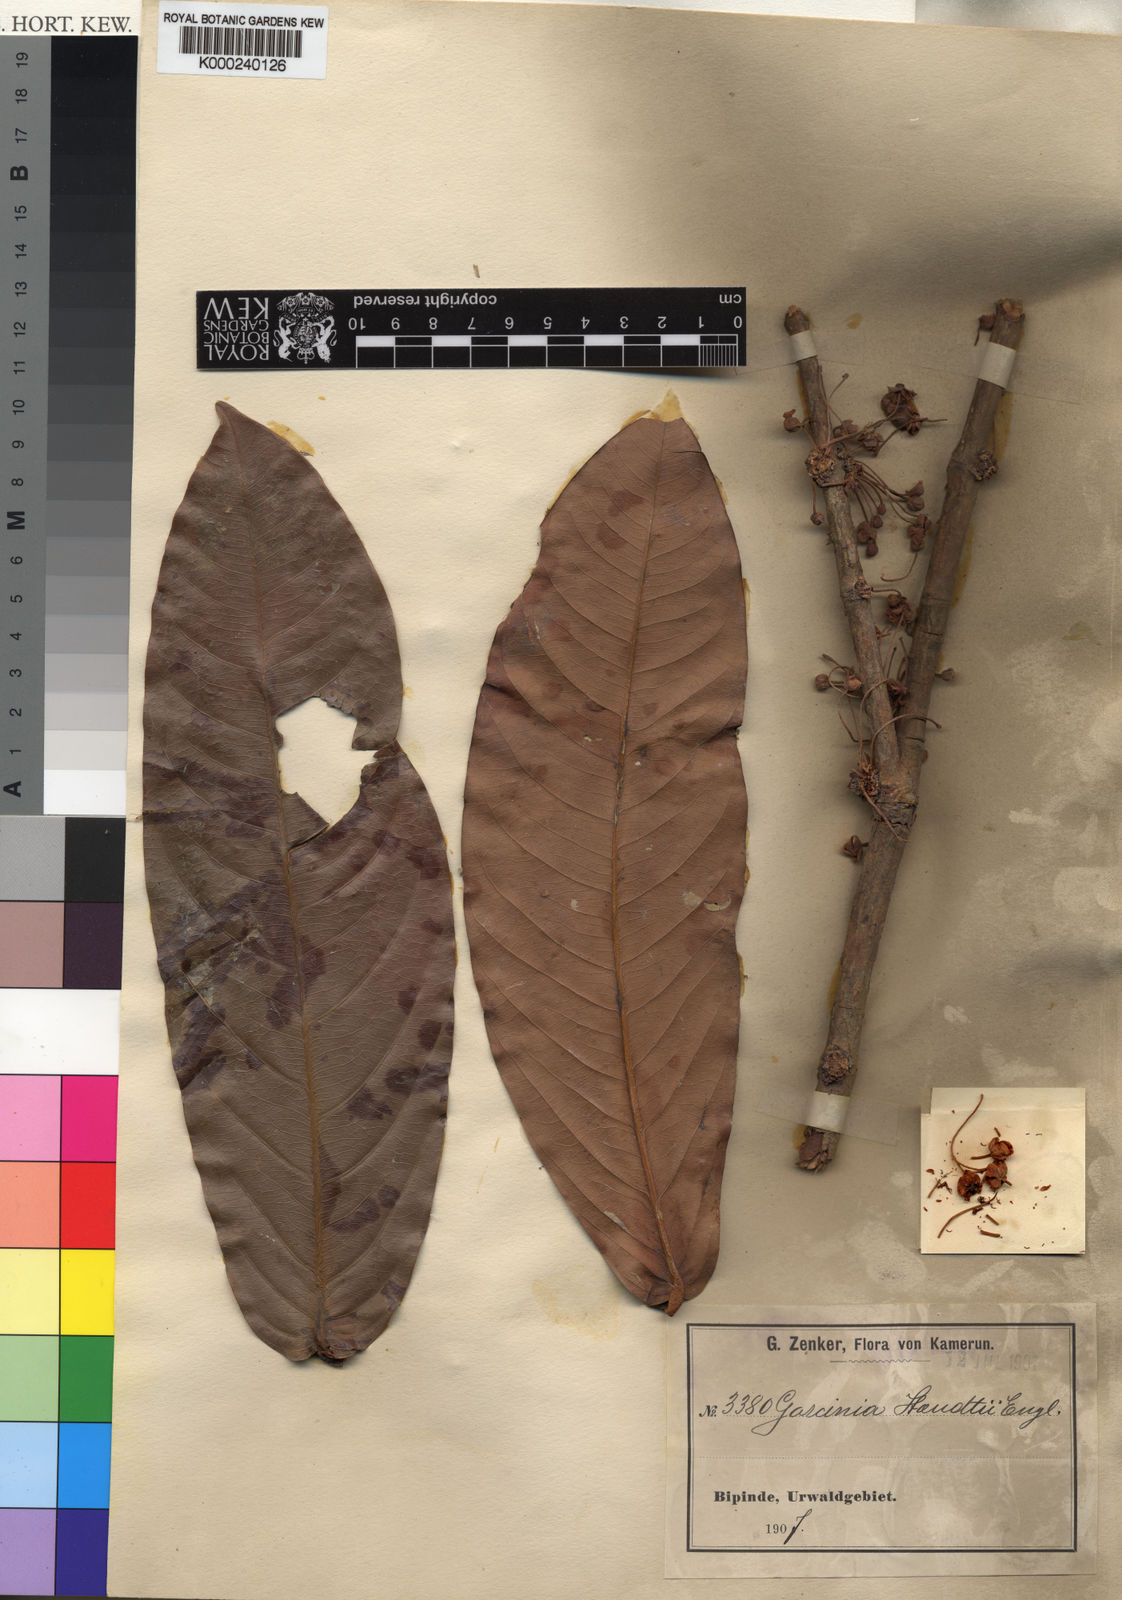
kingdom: Plantae
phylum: Tracheophyta
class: Magnoliopsida
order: Malpighiales
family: Clusiaceae
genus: Garcinia
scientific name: Garcinia staudtii
